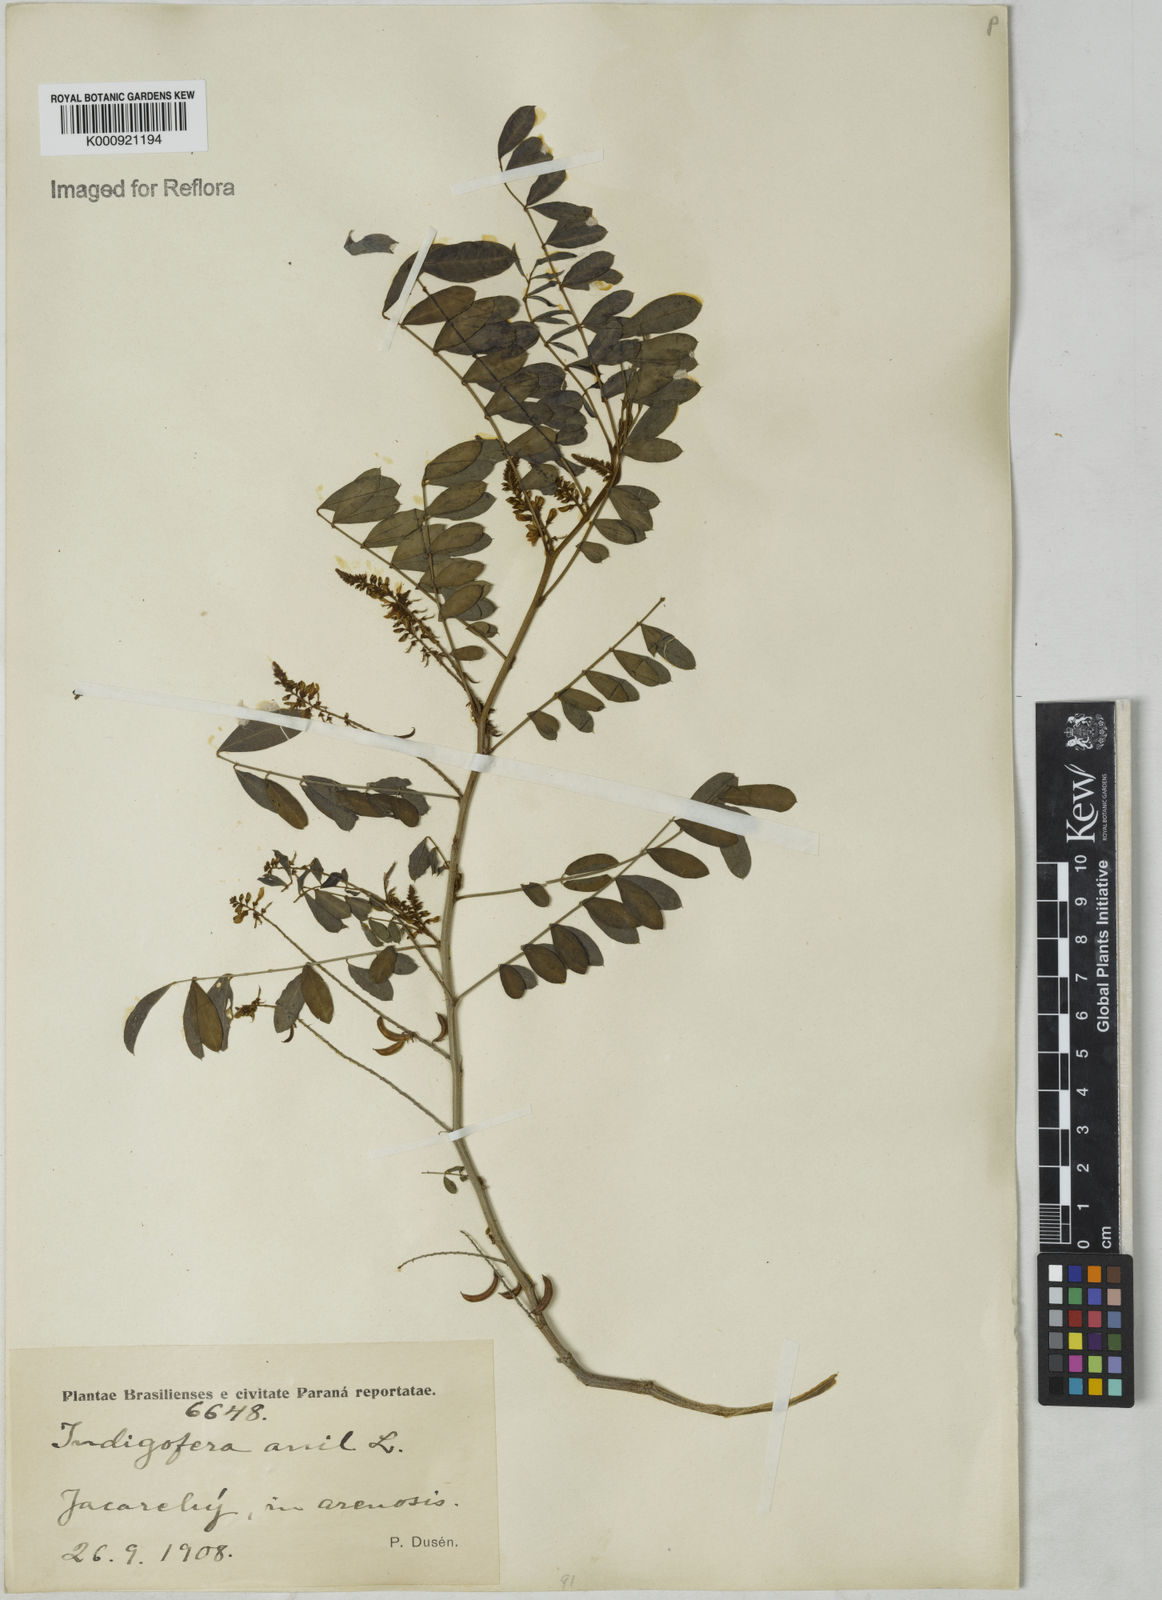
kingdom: Plantae
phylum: Tracheophyta
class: Magnoliopsida
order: Fabales
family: Fabaceae
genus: Indigofera
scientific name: Indigofera suffruticosa
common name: Anil de pasto
